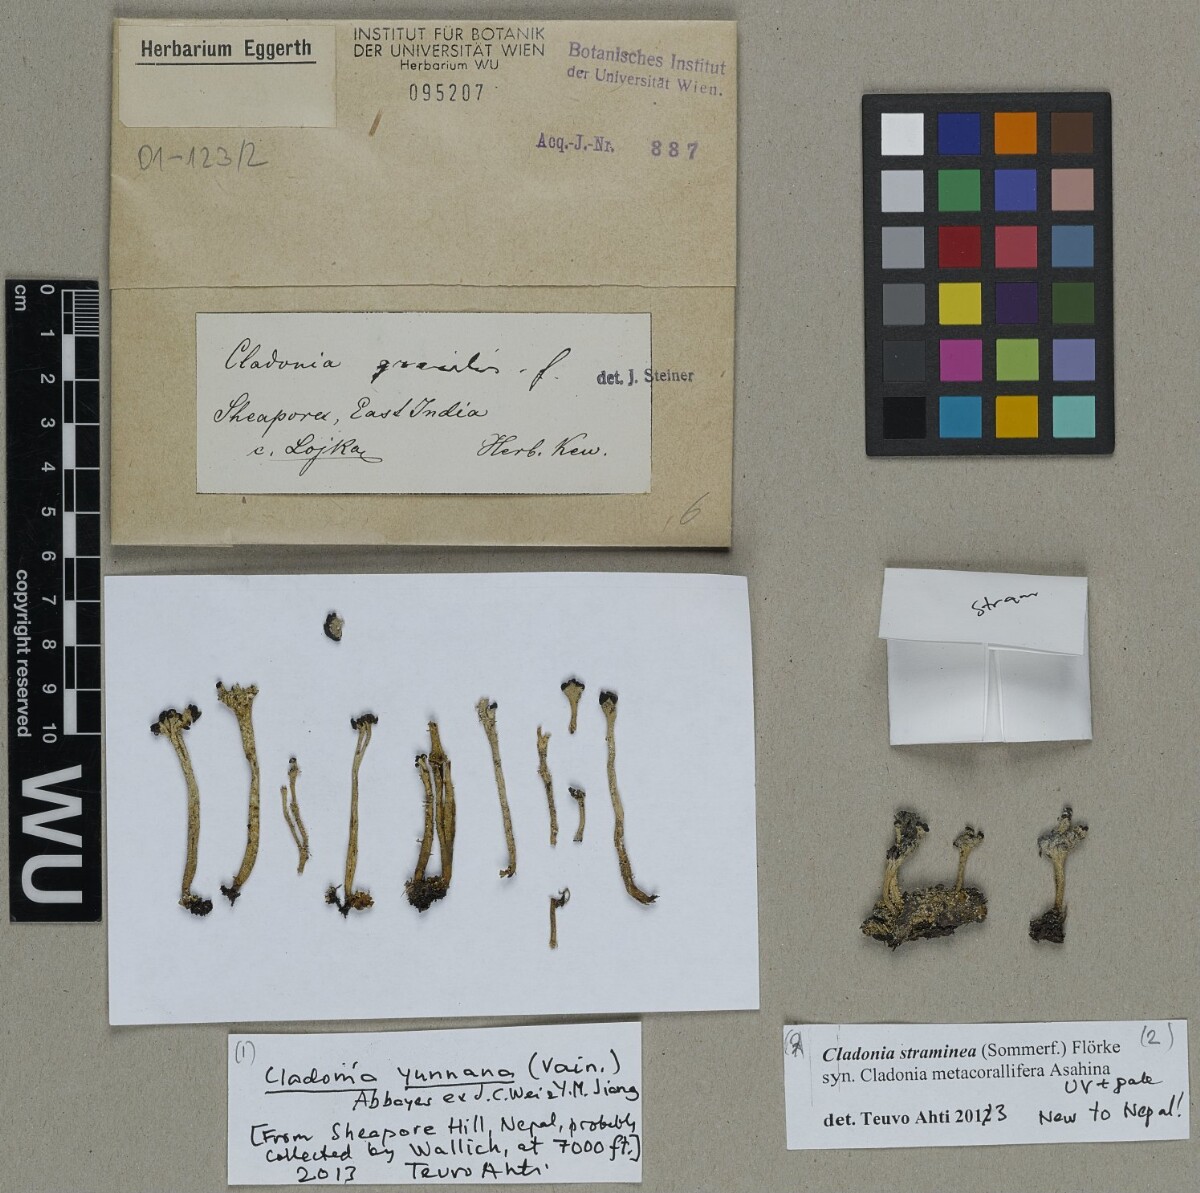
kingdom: Fungi
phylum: Ascomycota
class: Lecanoromycetes
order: Lecanorales
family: Cladoniaceae
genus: Cladonia
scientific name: Cladonia yunnana
